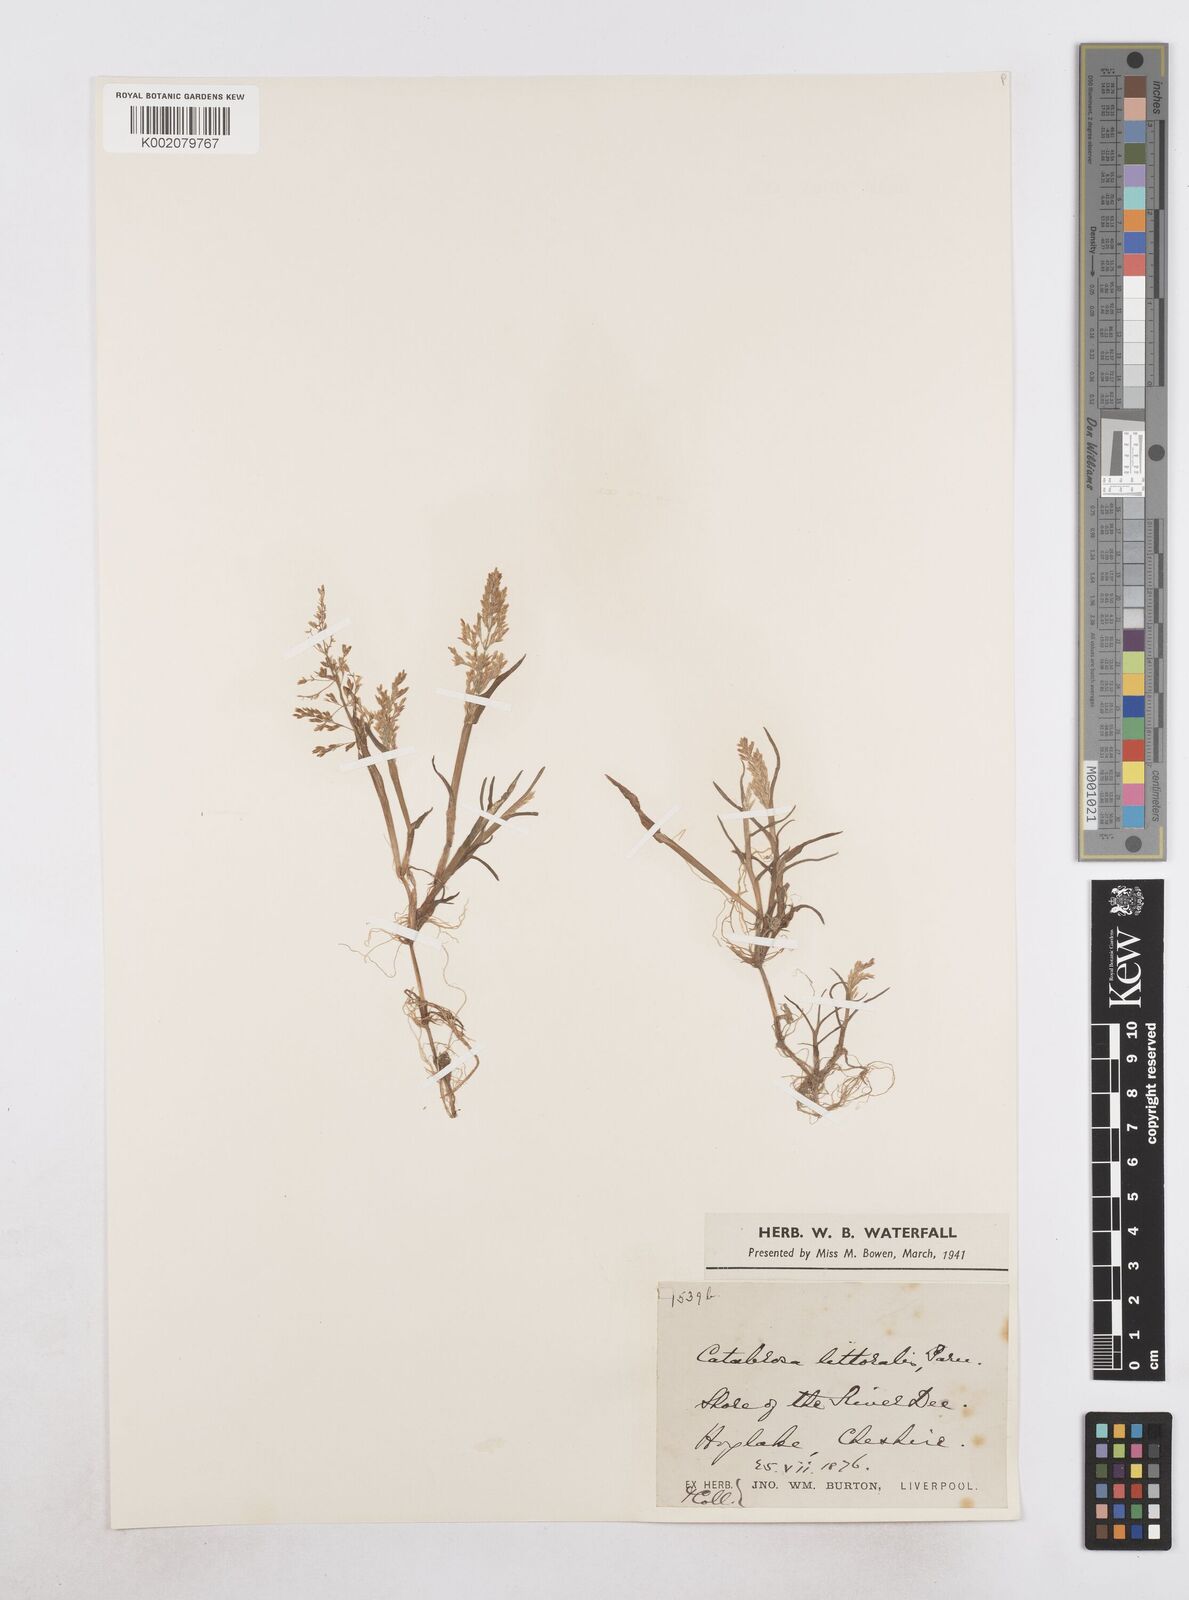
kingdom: Plantae
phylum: Tracheophyta
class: Liliopsida
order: Poales
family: Poaceae
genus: Catabrosa
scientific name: Catabrosa aquatica
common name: Whorl-grass
